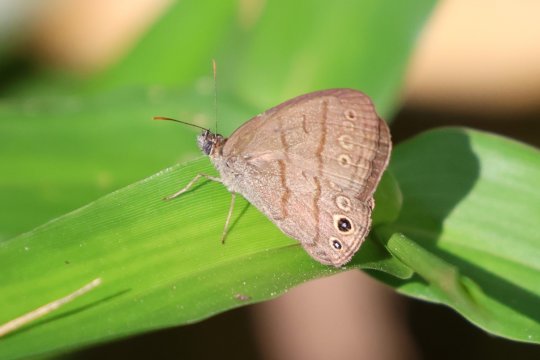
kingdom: Animalia
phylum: Arthropoda
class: Insecta
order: Lepidoptera
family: Nymphalidae
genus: Hermeuptychia
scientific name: Hermeuptychia hermes
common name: Carolina Satyr
